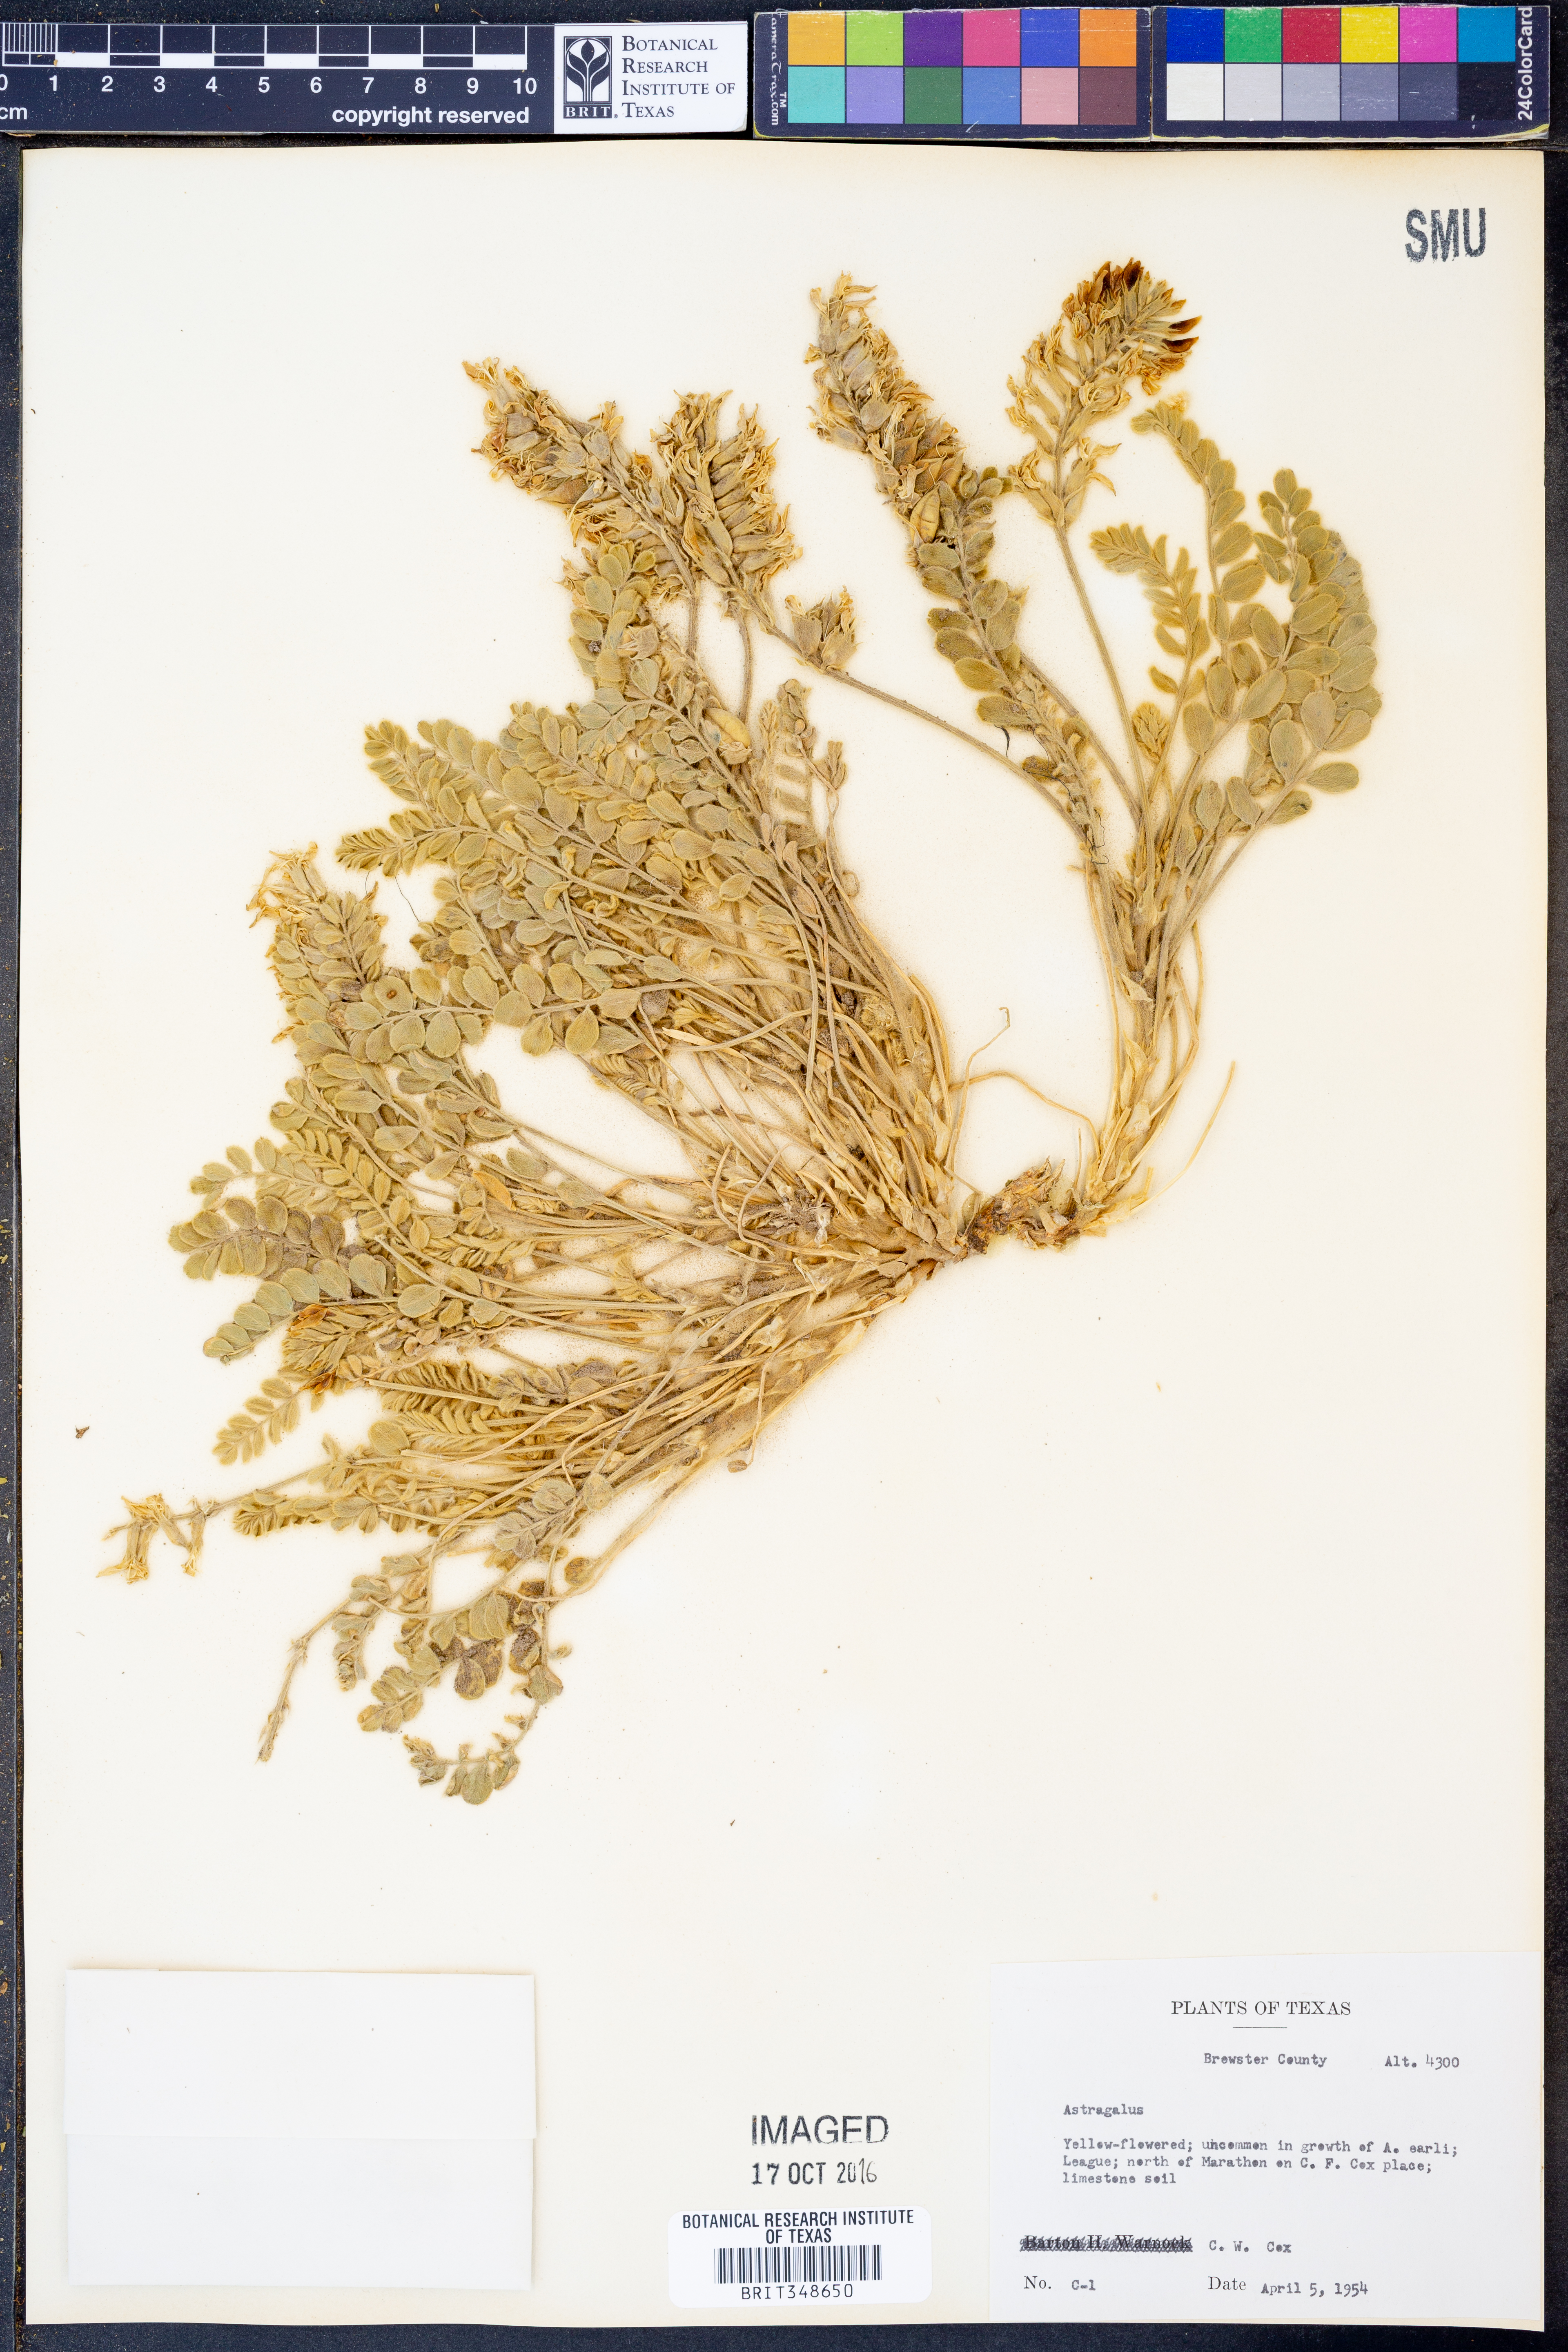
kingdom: Plantae
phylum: Tracheophyta
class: Magnoliopsida
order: Fabales
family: Fabaceae
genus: Astragalus
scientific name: Astragalus
